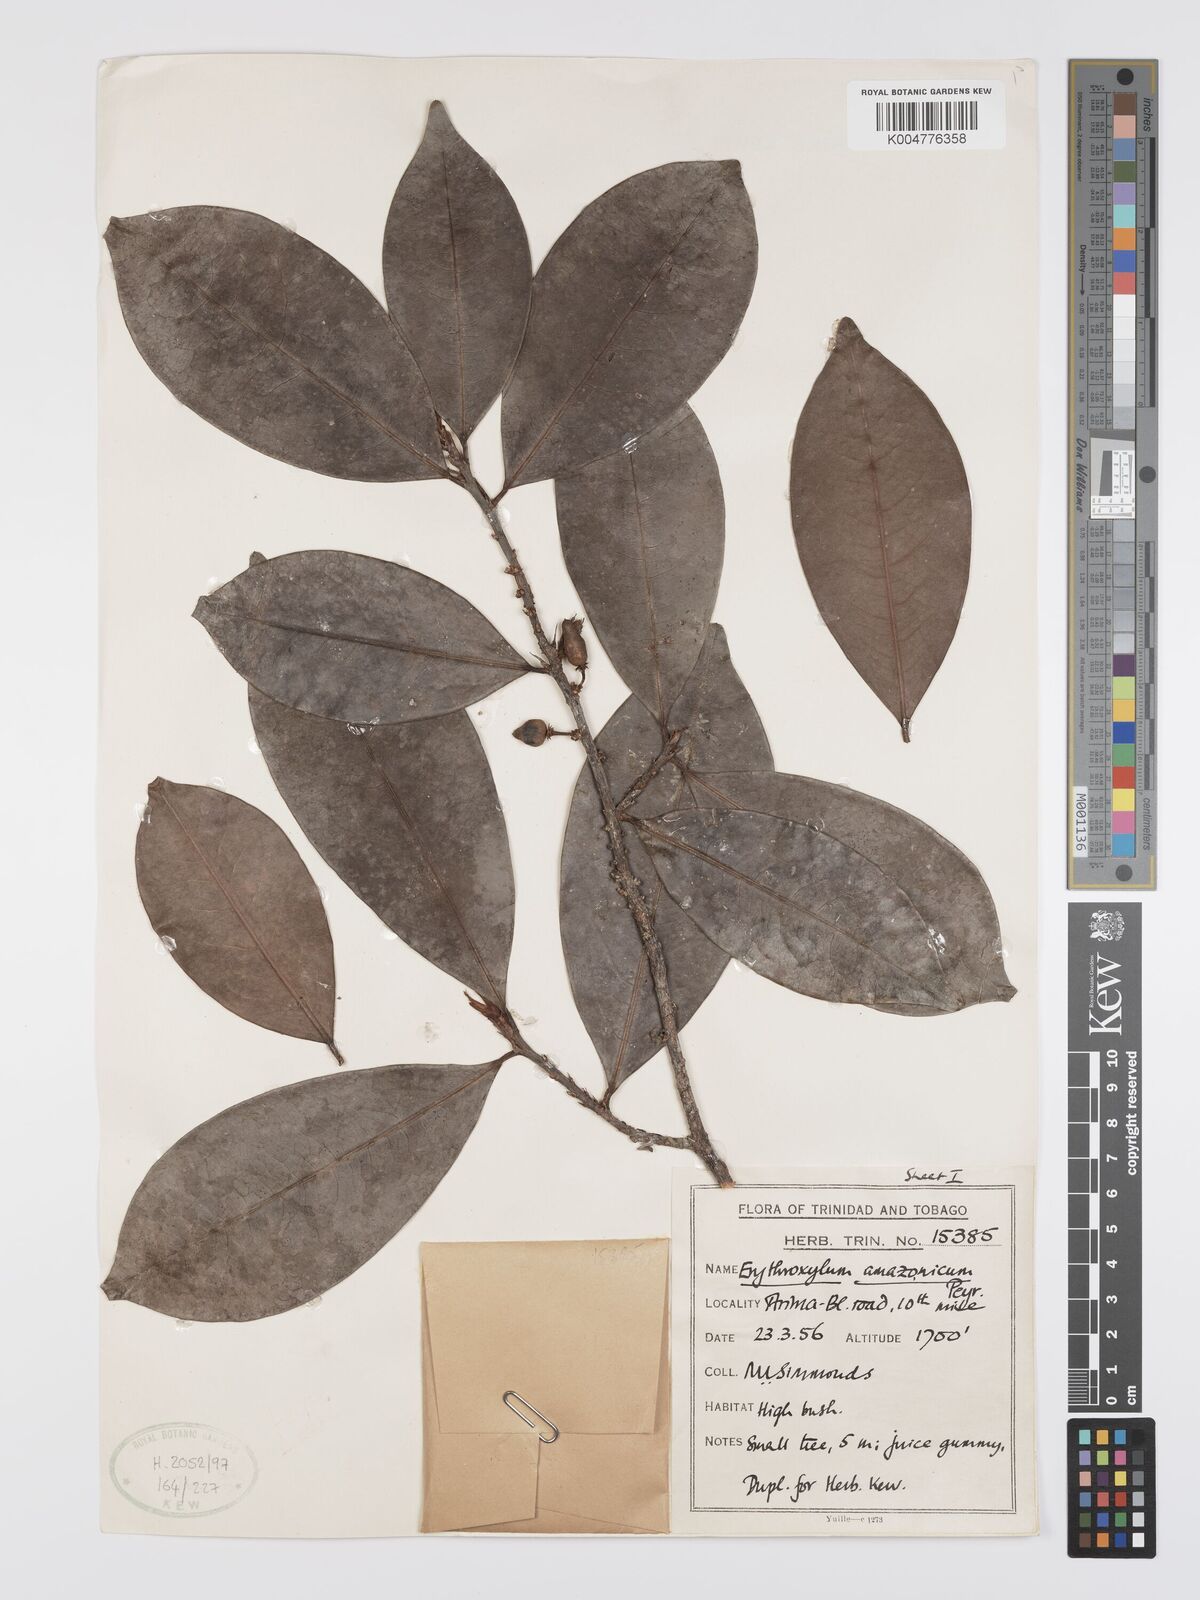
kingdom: Plantae
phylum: Tracheophyta
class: Magnoliopsida
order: Malpighiales
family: Erythroxylaceae
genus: Erythroxylum
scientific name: Erythroxylum amazonicum
